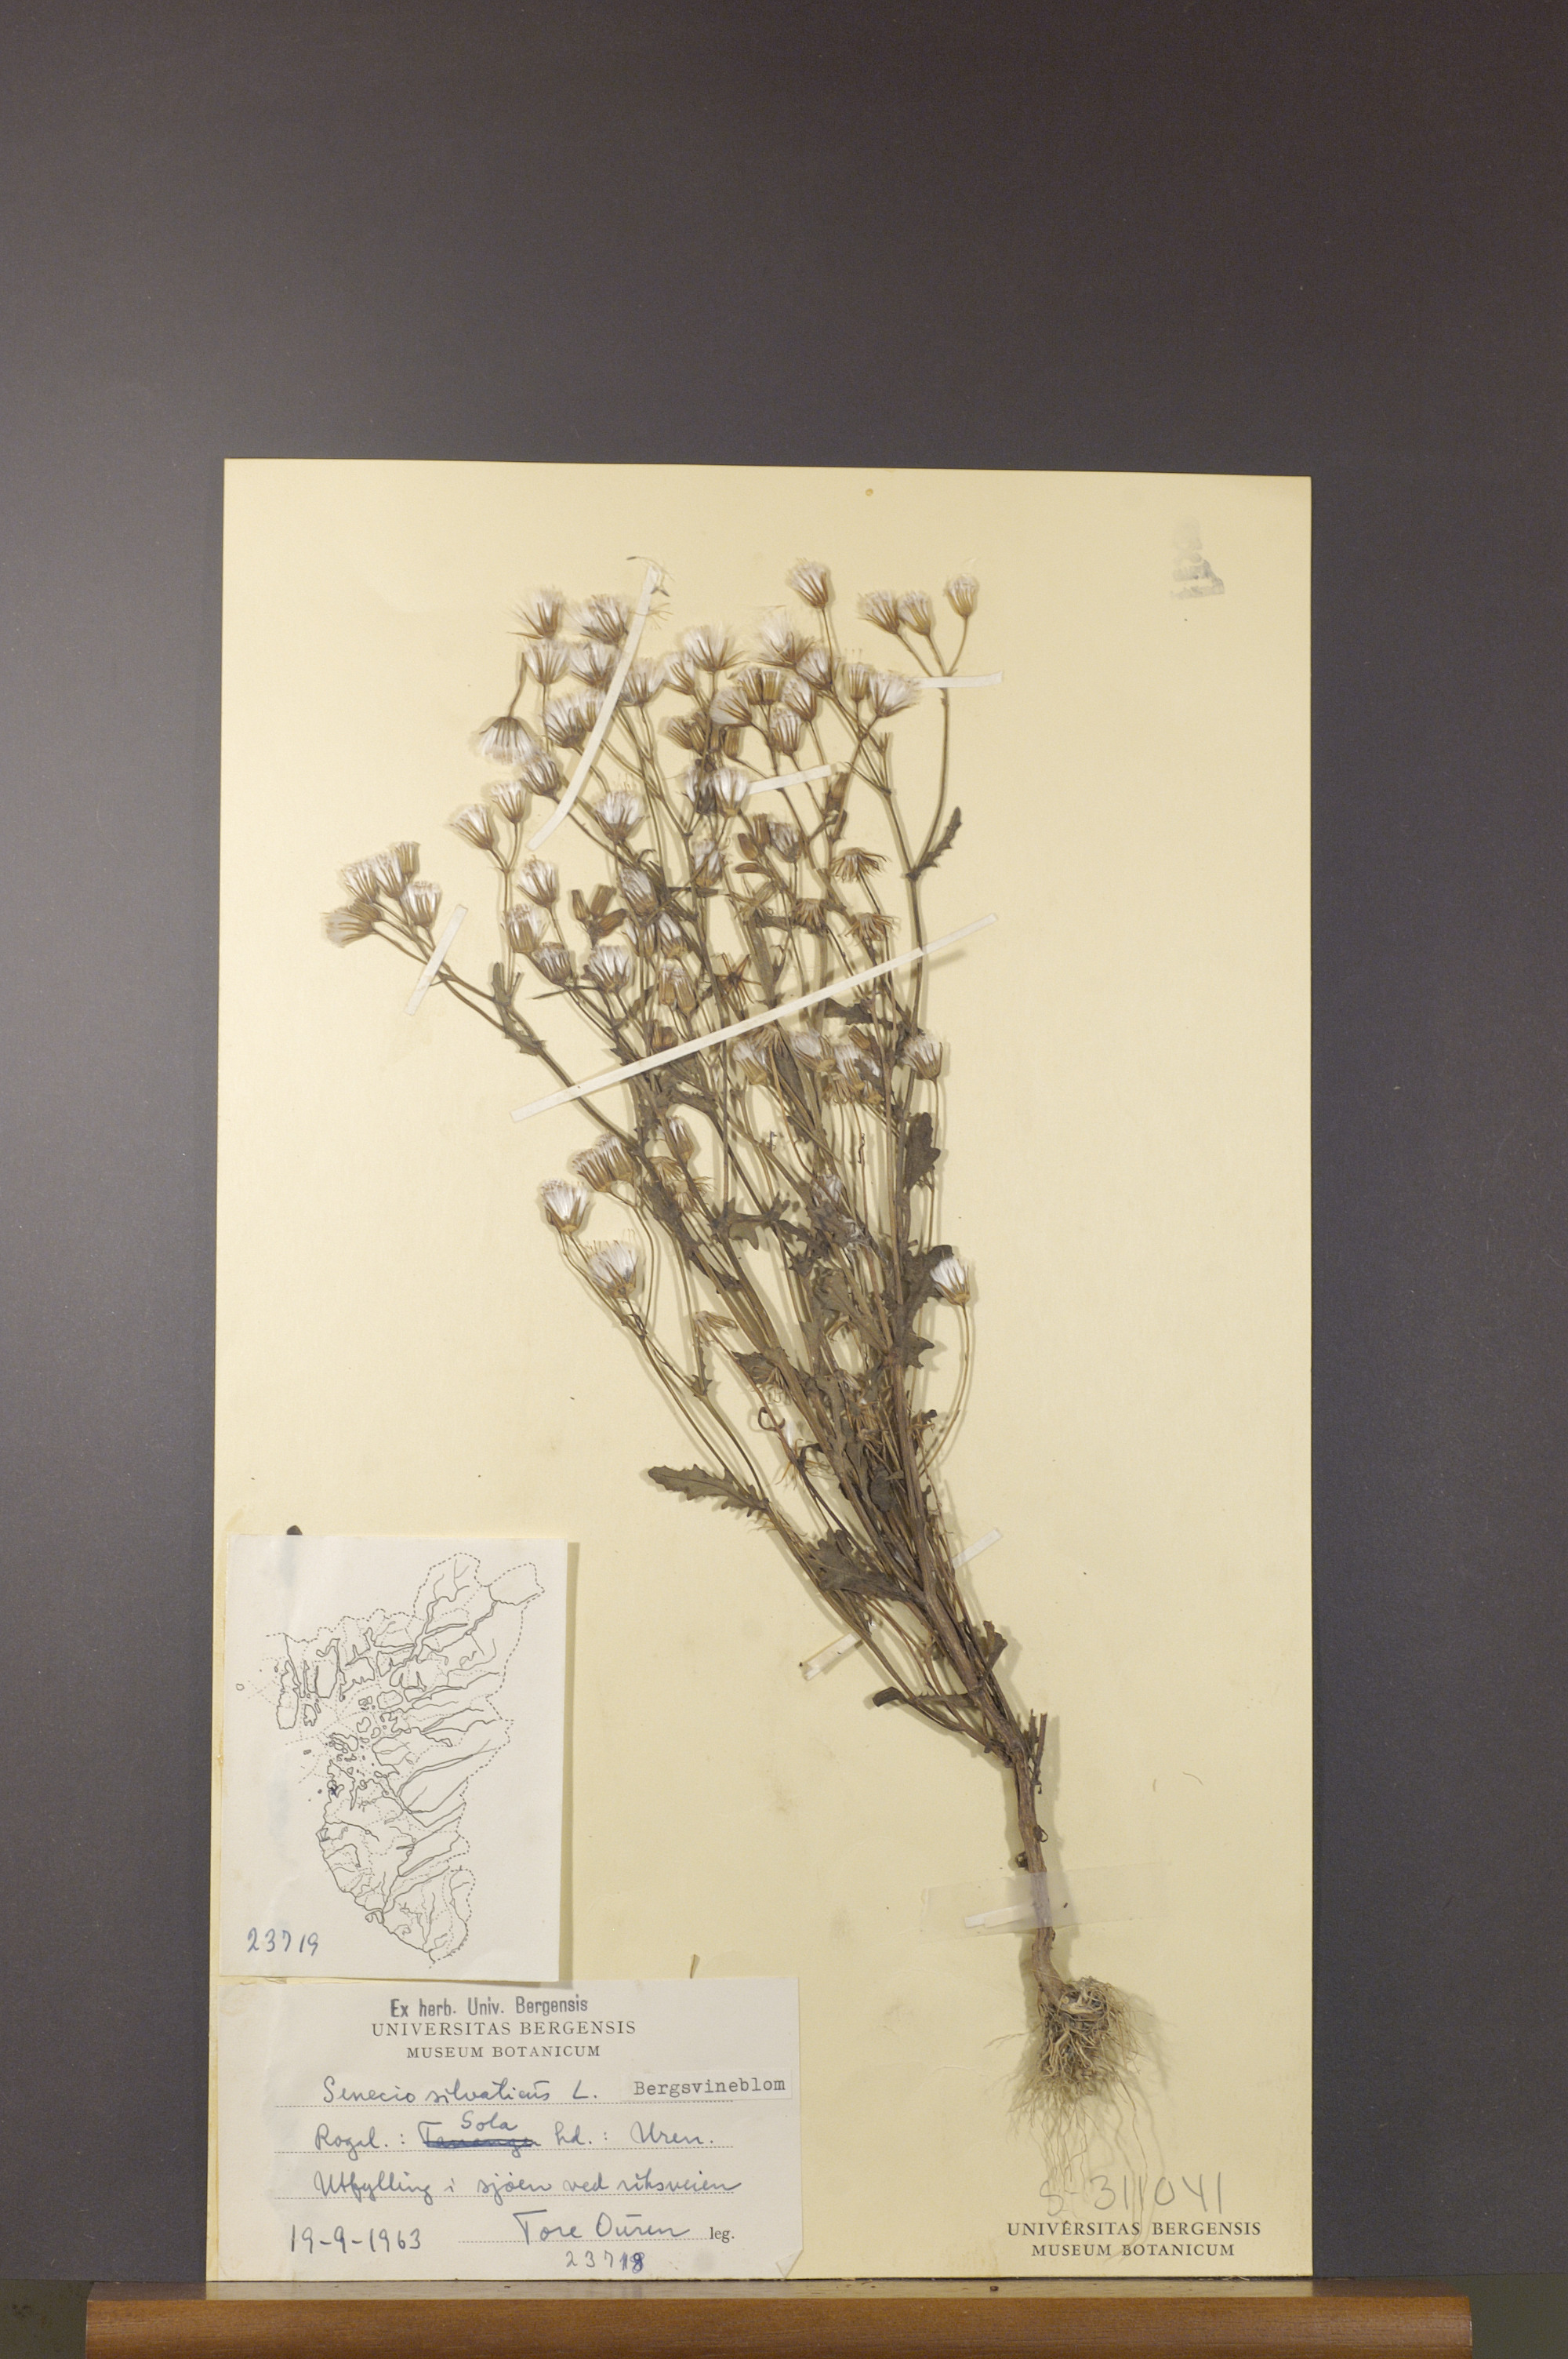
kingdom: Plantae
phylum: Tracheophyta
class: Magnoliopsida
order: Asterales
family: Asteraceae
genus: Senecio
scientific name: Senecio sylvaticus
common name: Woodland ragwort
